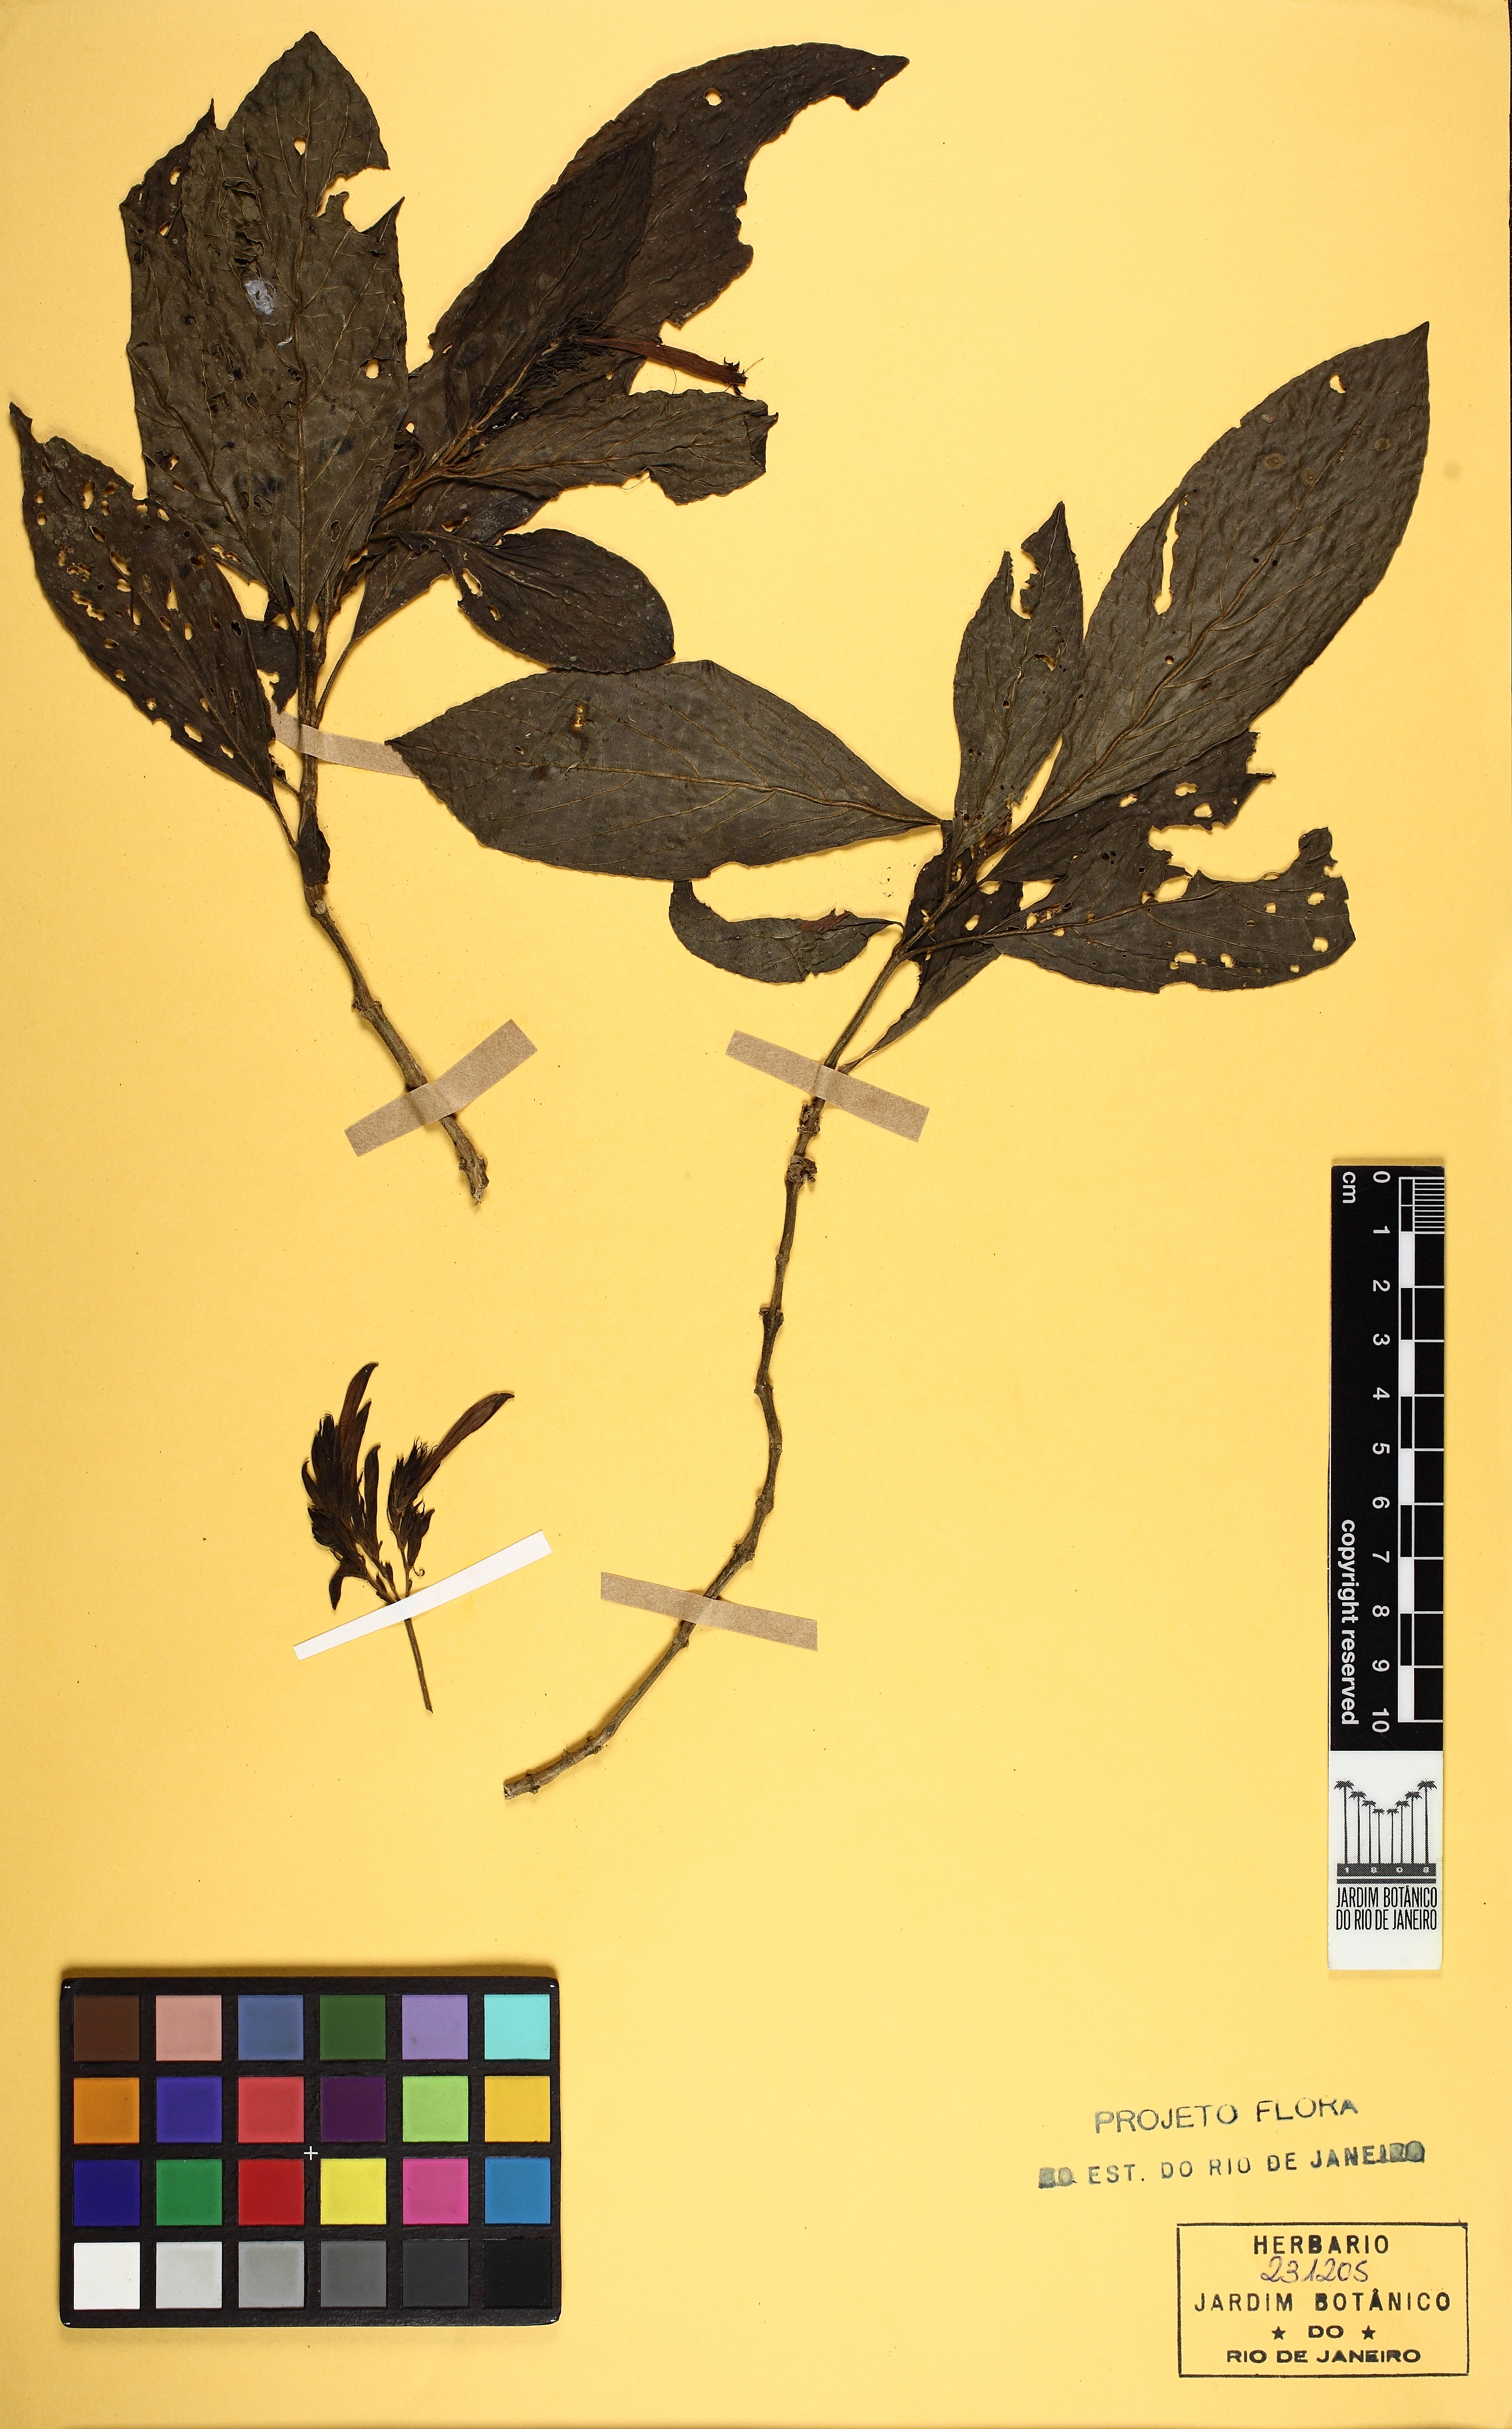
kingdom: Plantae
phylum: Tracheophyta
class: Magnoliopsida
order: Lamiales
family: Acanthaceae
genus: Justicia
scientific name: Justicia nervata
